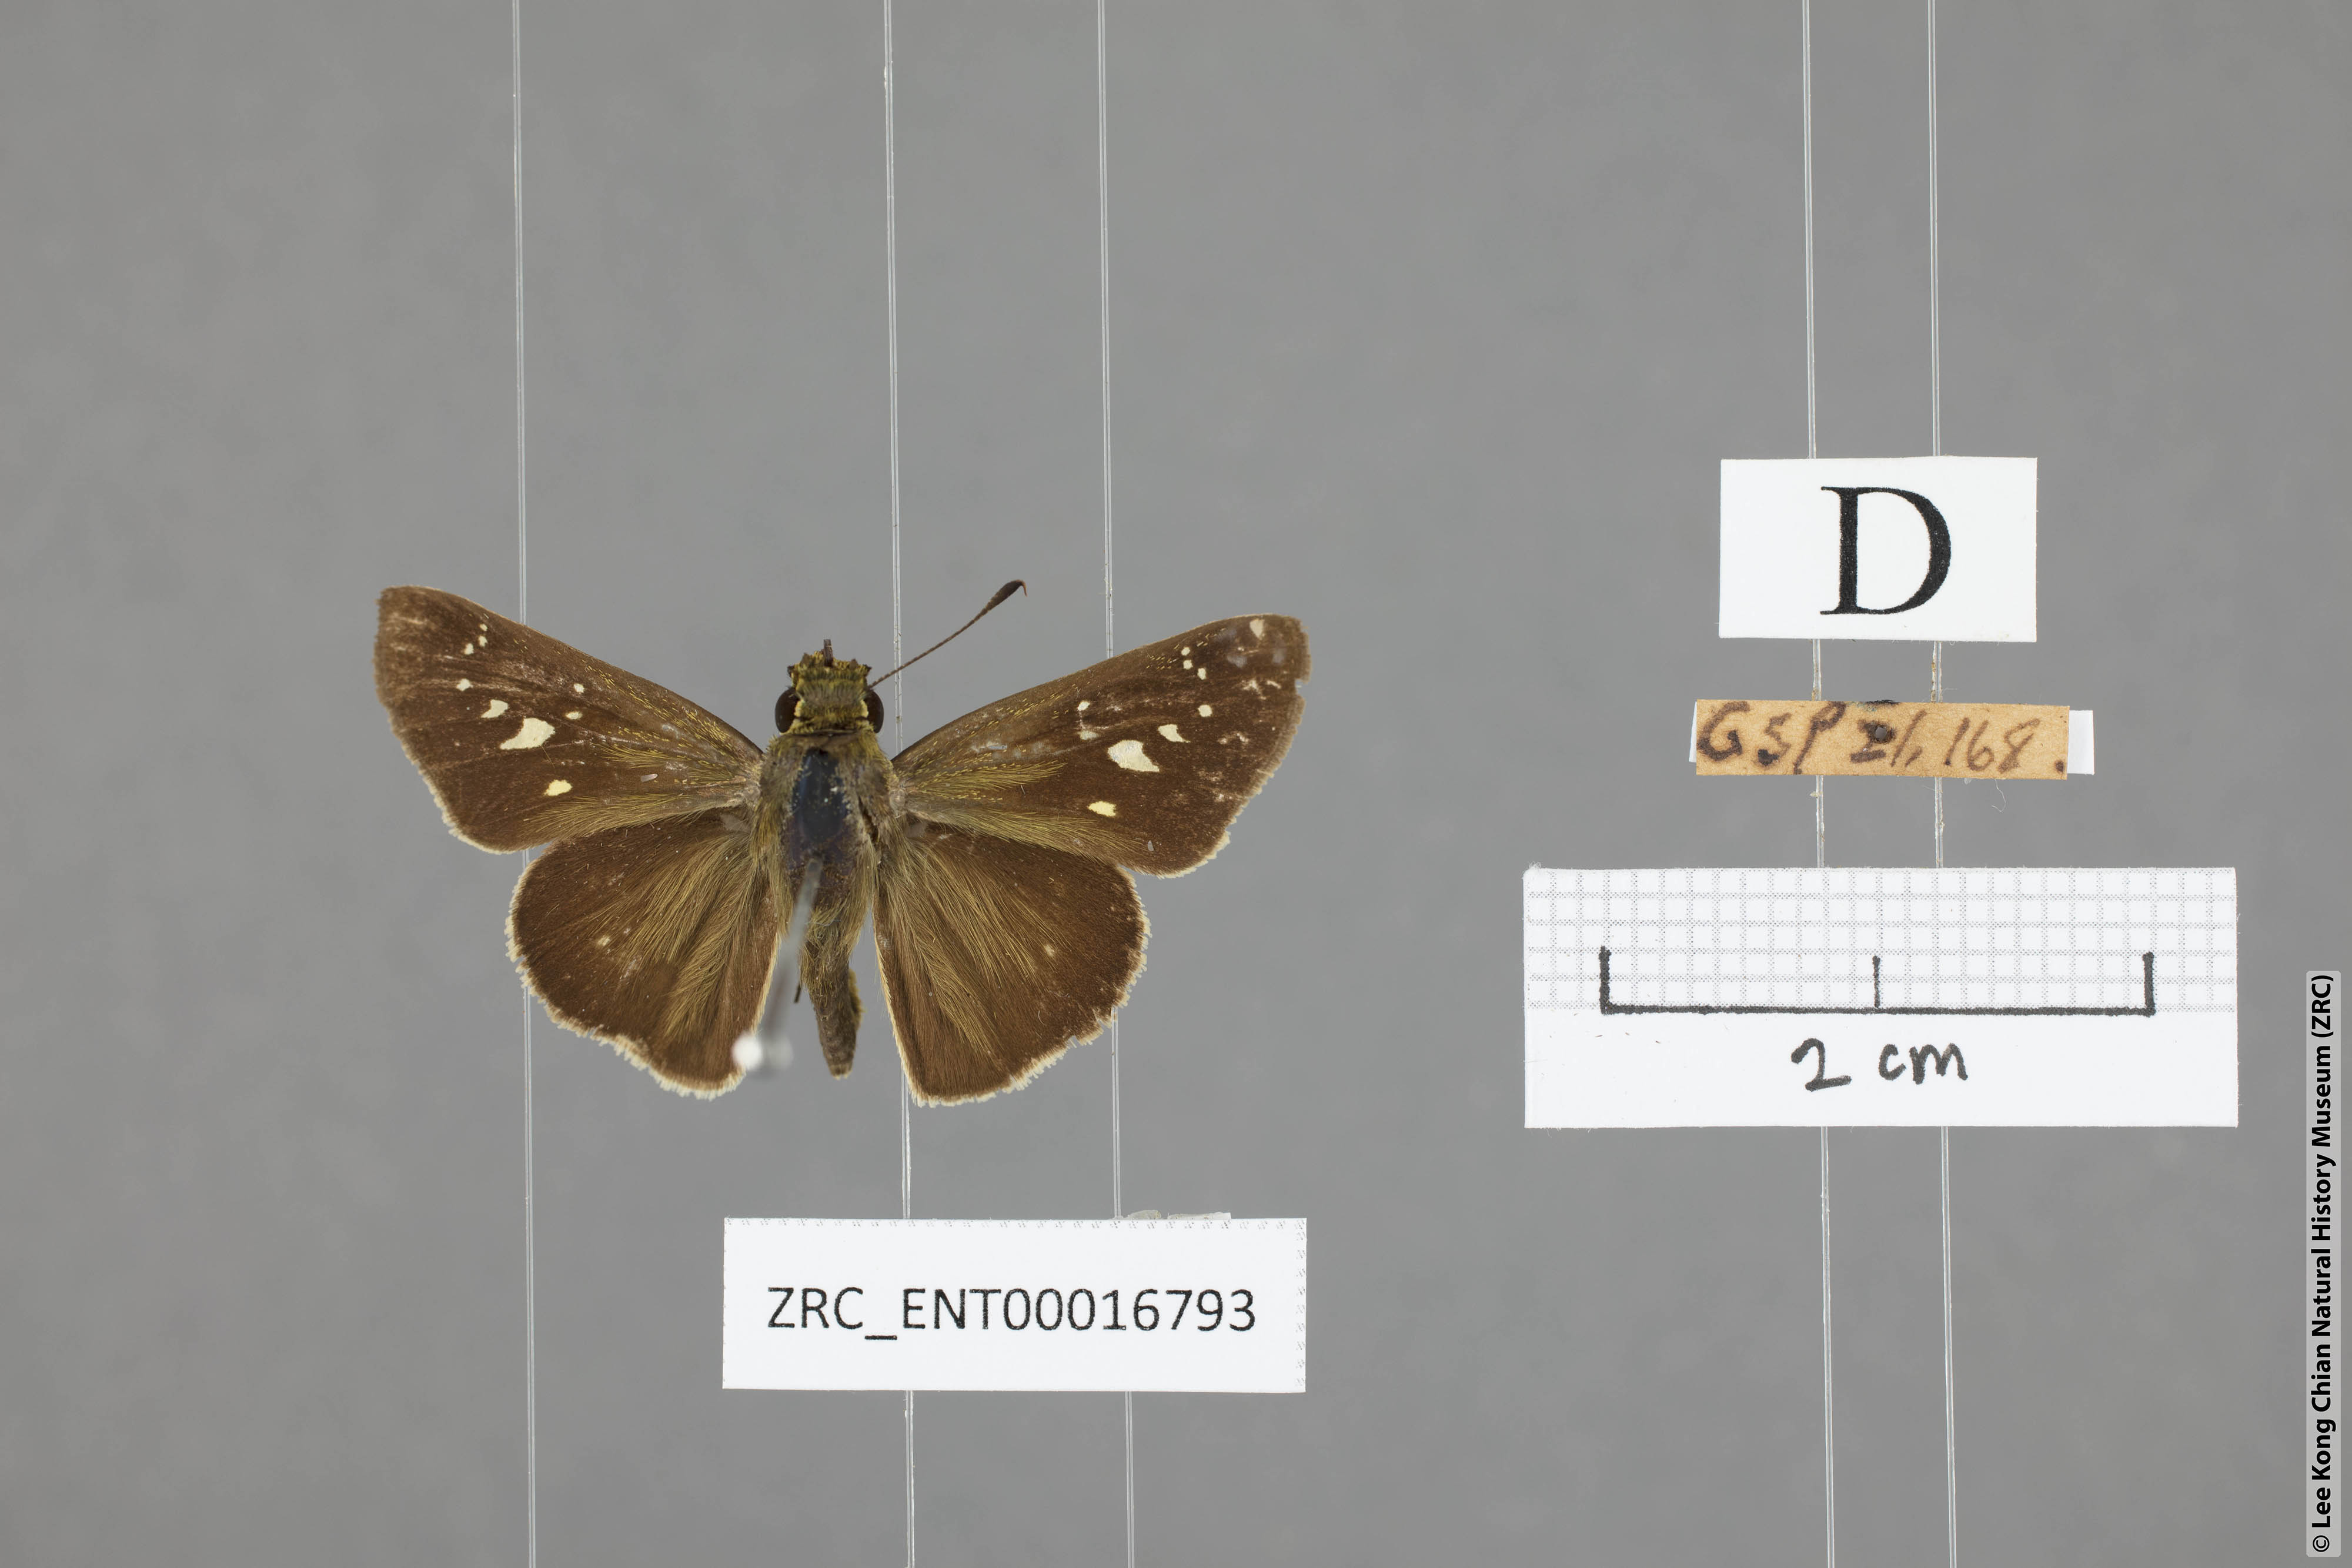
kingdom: Animalia
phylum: Arthropoda
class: Insecta
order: Lepidoptera
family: Hesperiidae
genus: Borbo
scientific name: Borbo cinnara
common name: Formosan swift
